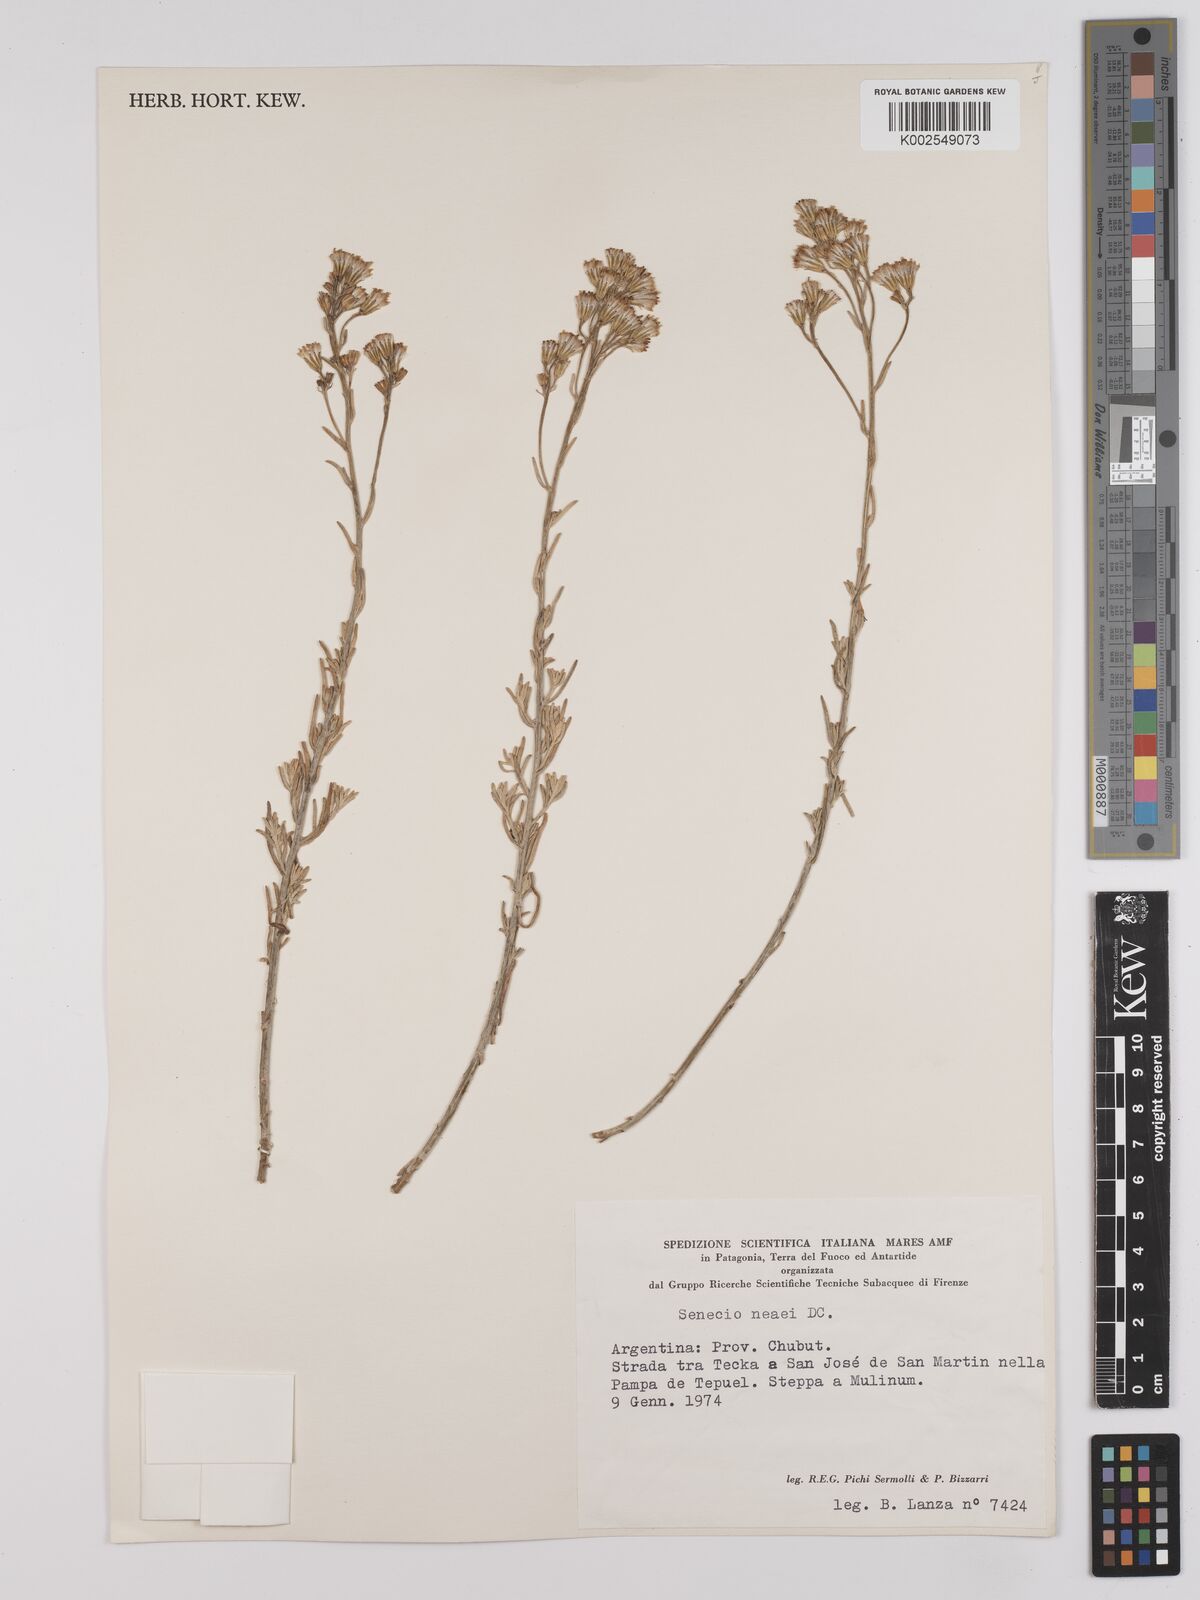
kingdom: Plantae
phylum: Tracheophyta
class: Magnoliopsida
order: Asterales
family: Asteraceae
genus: Senecio
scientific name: Senecio neaei
